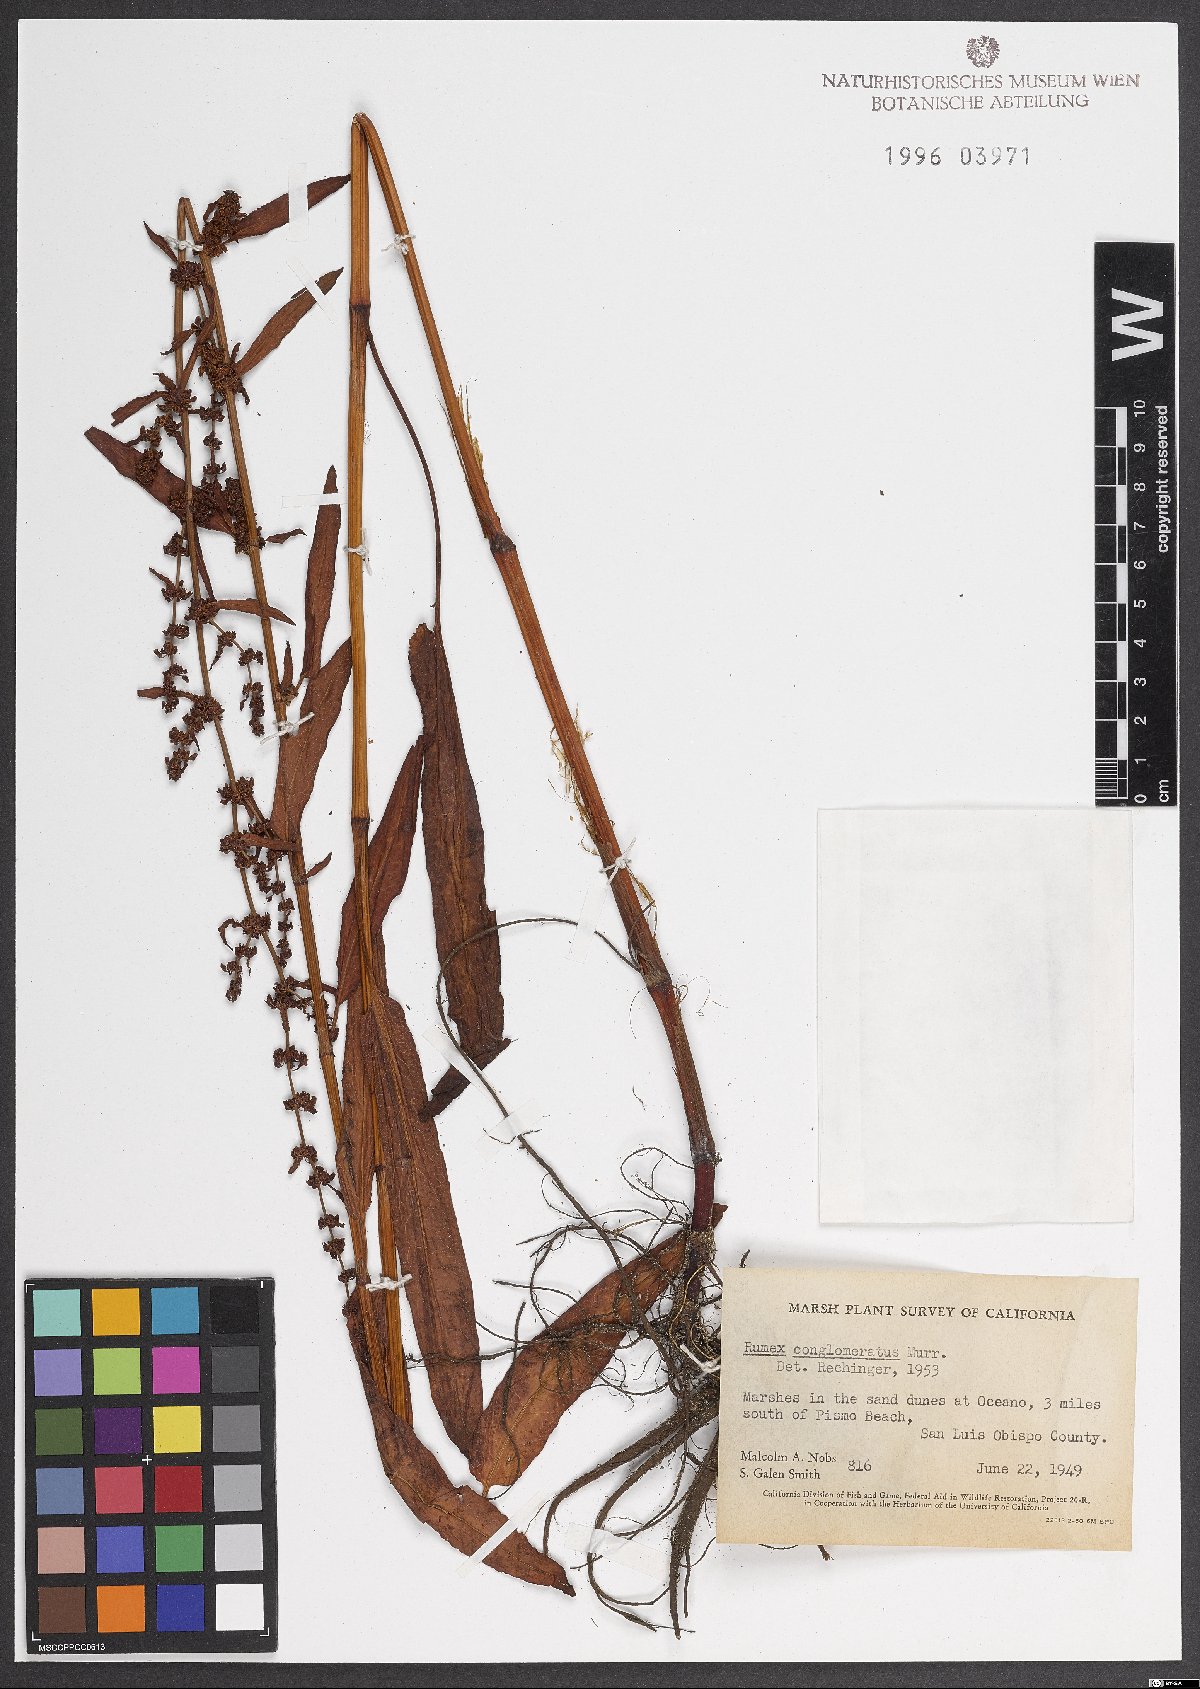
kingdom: Plantae
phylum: Tracheophyta
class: Magnoliopsida
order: Caryophyllales
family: Polygonaceae
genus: Rumex
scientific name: Rumex conglomeratus
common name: Clustered dock
